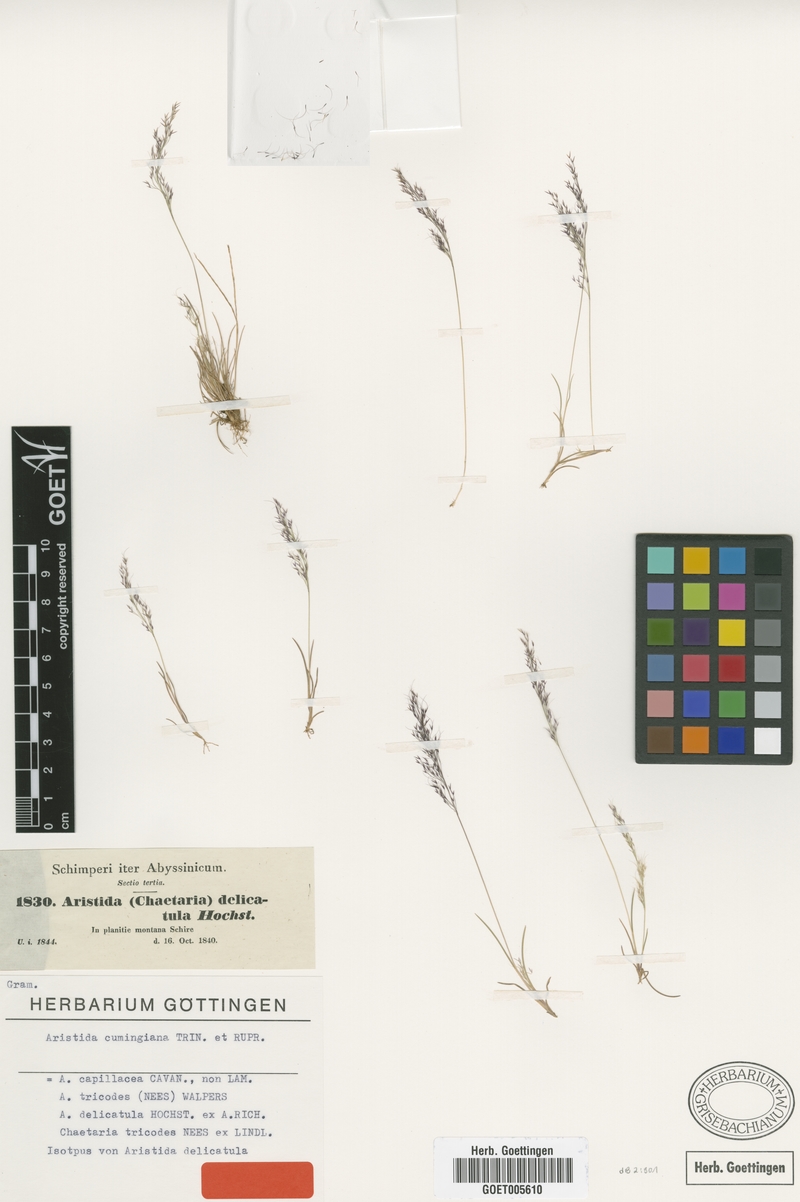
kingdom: Plantae
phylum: Tracheophyta
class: Liliopsida
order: Poales
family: Poaceae
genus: Aristida
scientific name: Aristida cumingiana
